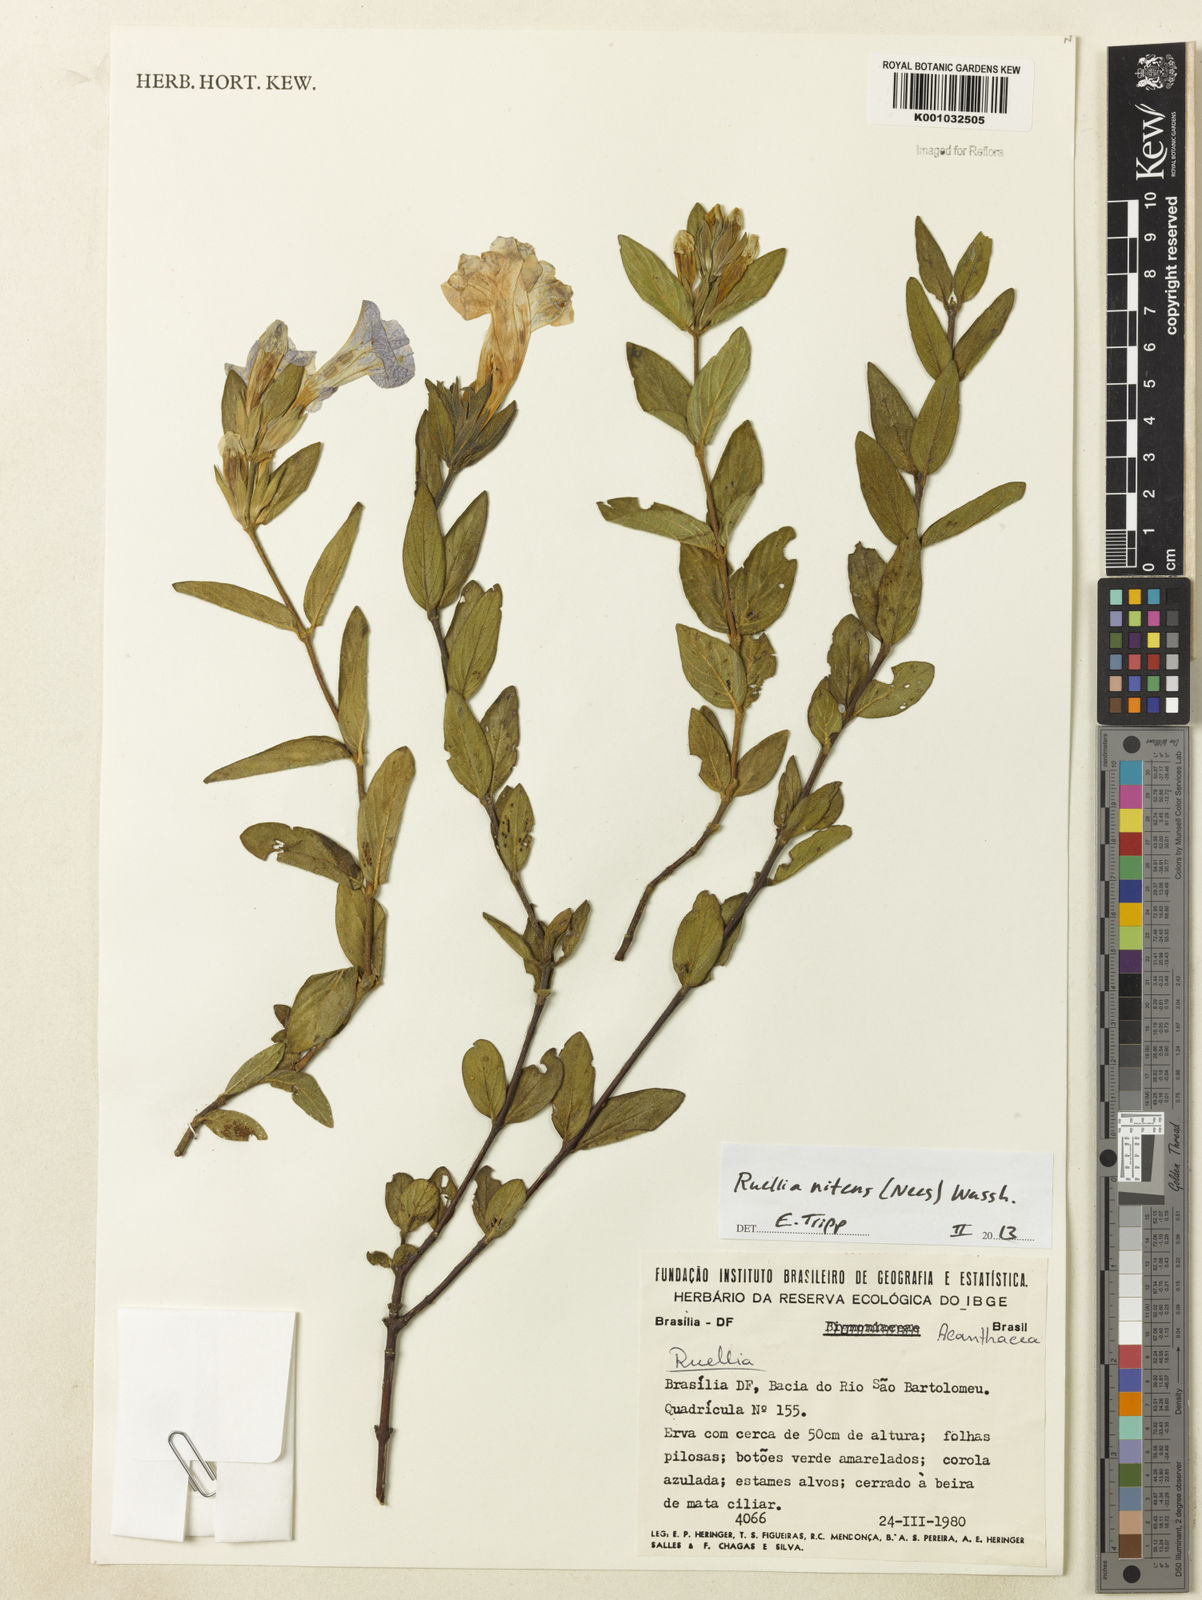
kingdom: Plantae
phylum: Tracheophyta
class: Magnoliopsida
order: Lamiales
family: Acanthaceae
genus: Ruellia
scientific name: Ruellia nitens
